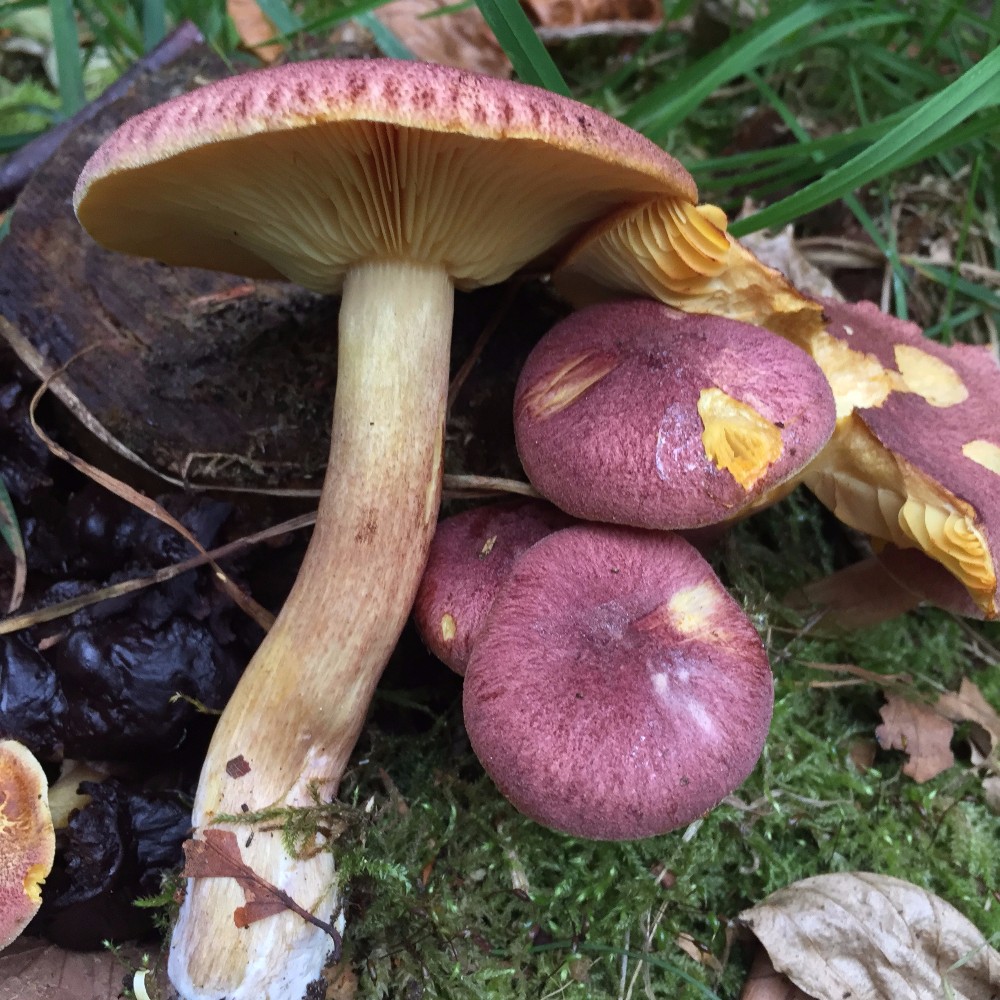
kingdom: Fungi
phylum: Basidiomycota
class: Agaricomycetes
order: Agaricales
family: Tricholomataceae
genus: Tricholomopsis
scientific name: Tricholomopsis rutilans
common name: purpur-væbnerhat
